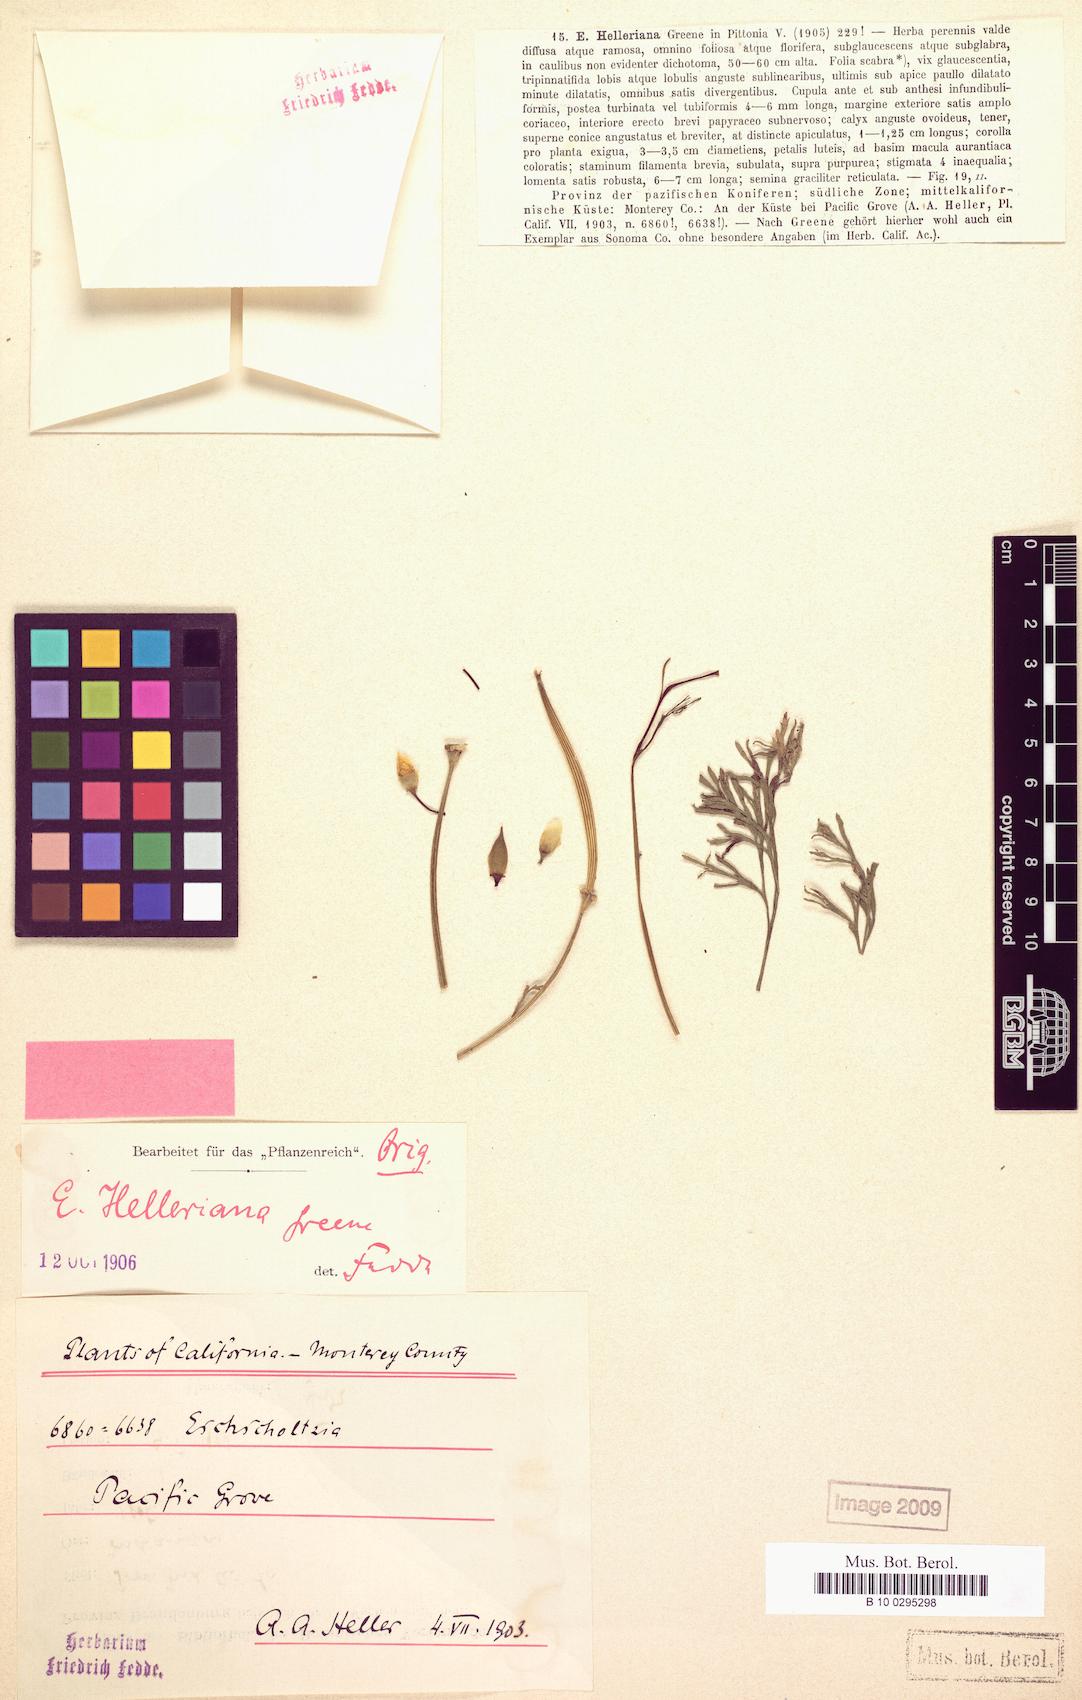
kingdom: Plantae
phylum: Tracheophyta
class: Magnoliopsida
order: Ranunculales
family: Papaveraceae
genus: Eschscholzia
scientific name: Eschscholzia californica
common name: California poppy
